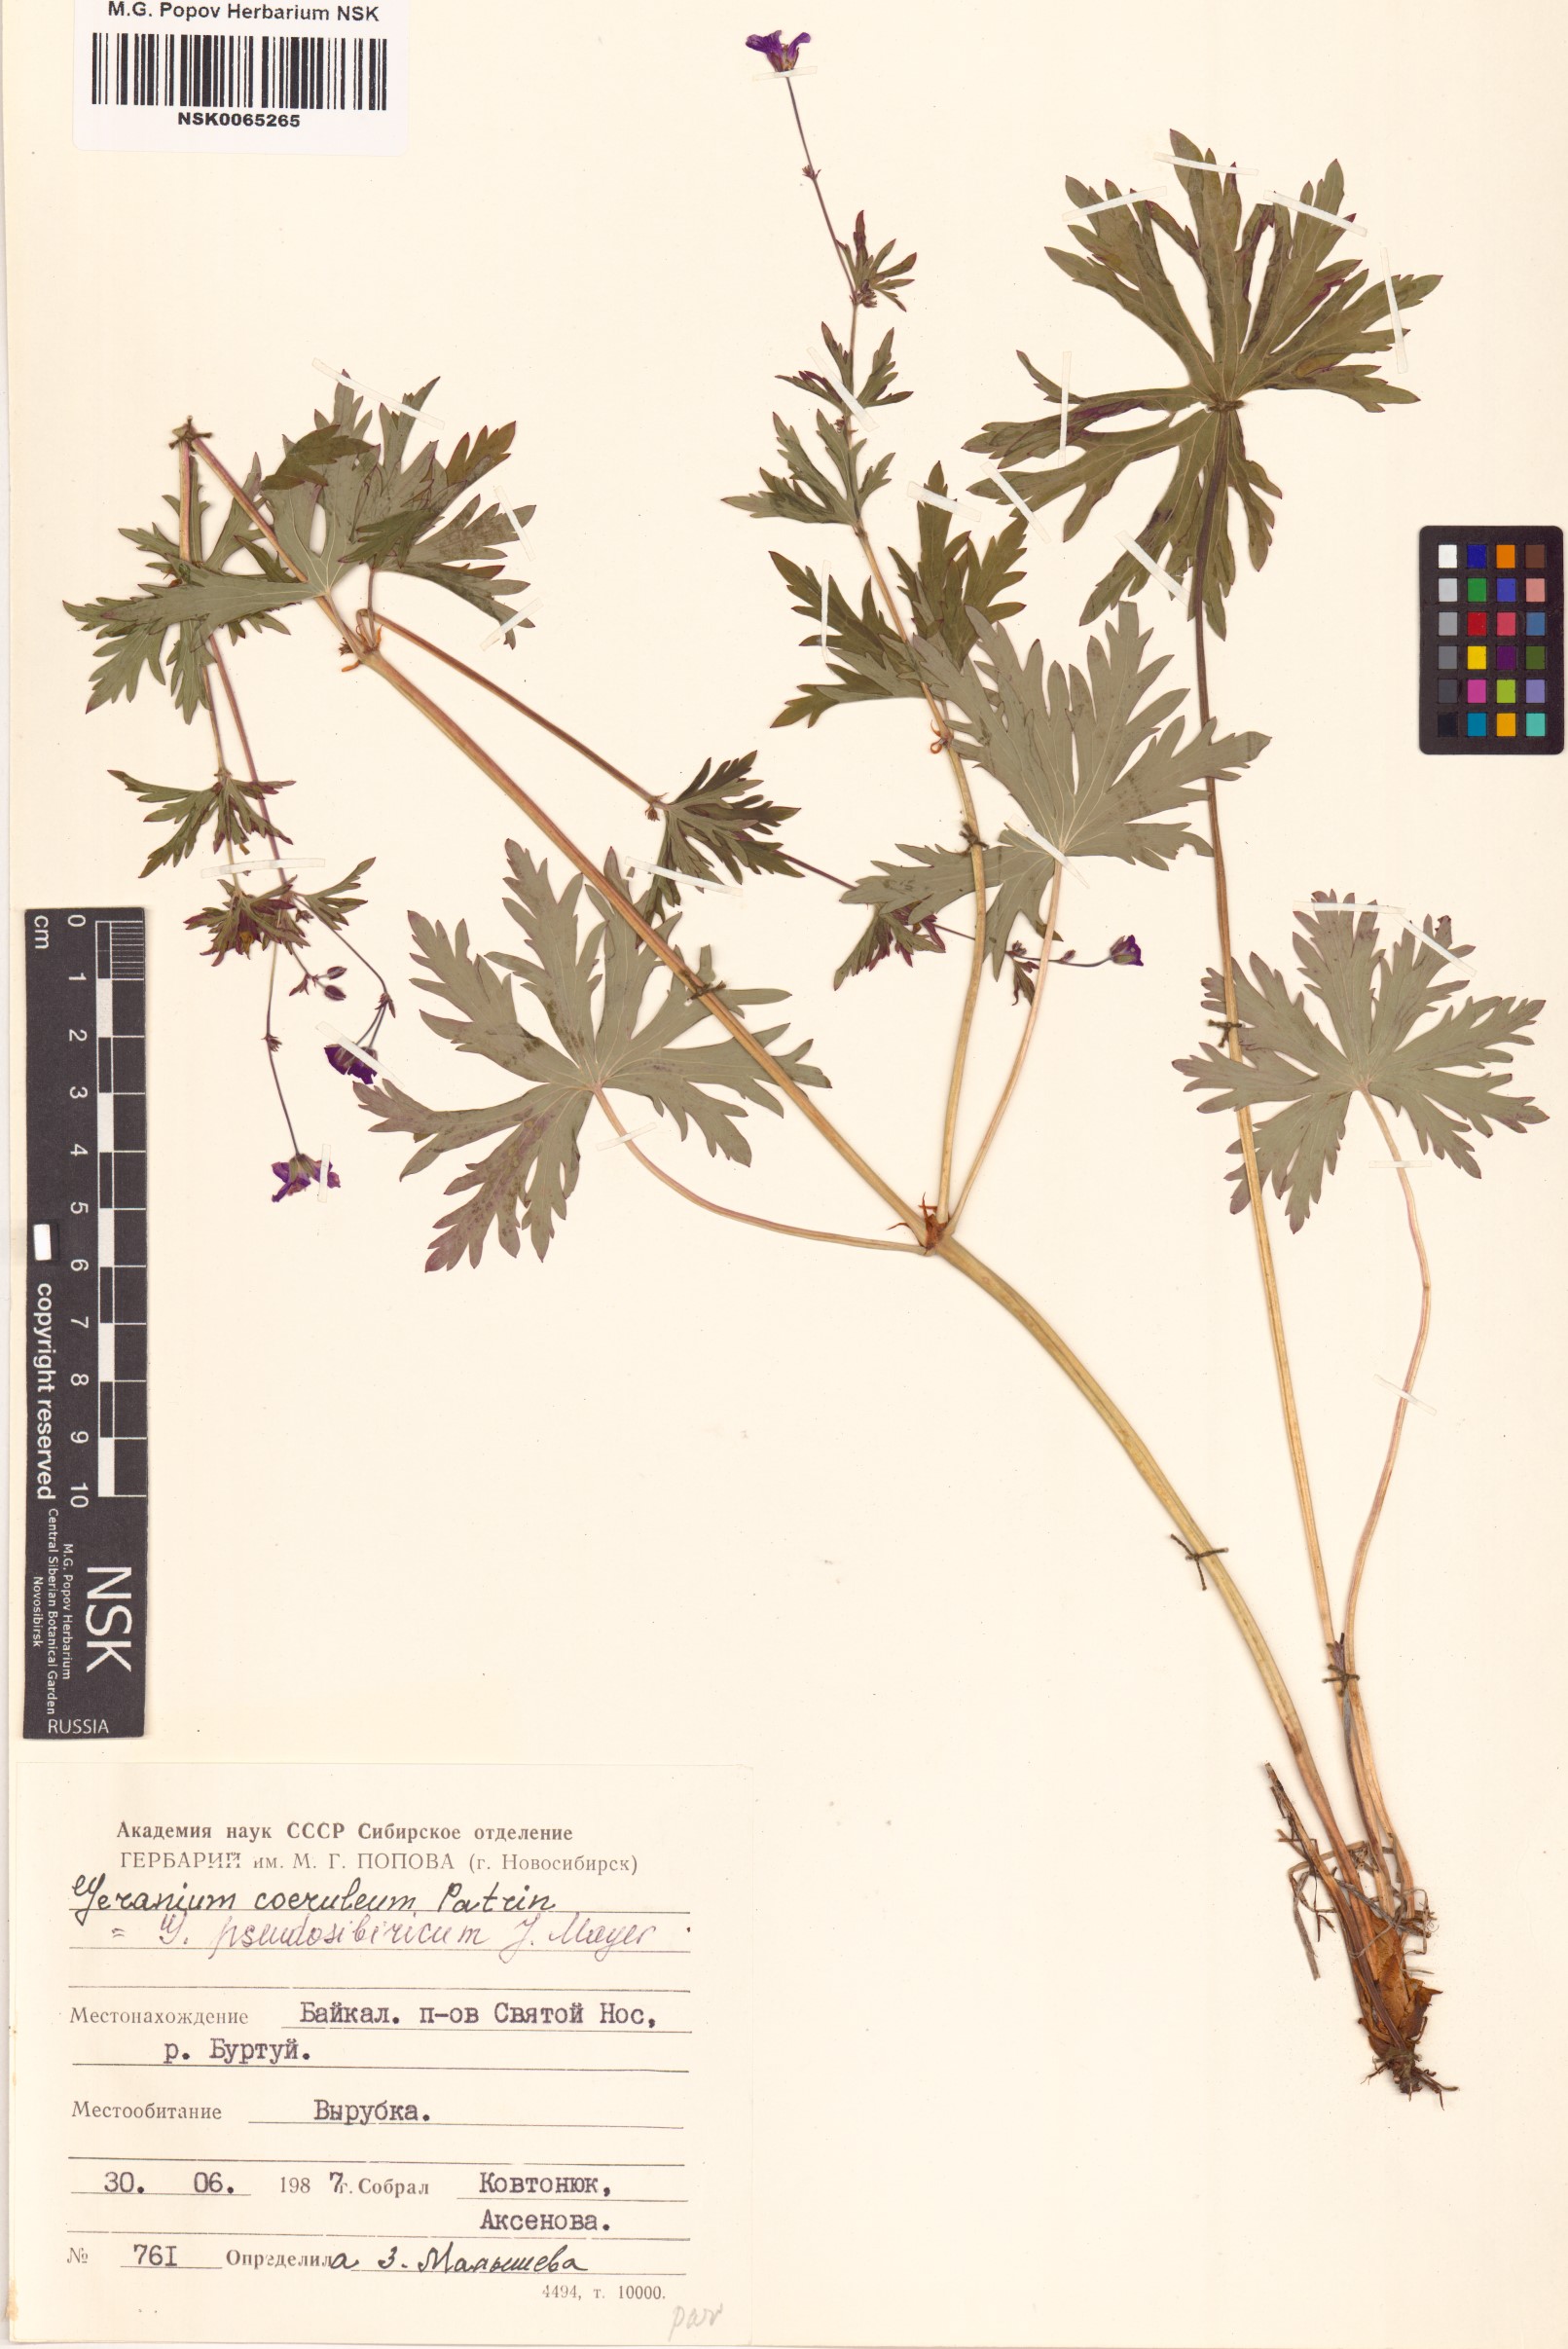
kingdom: Plantae
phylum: Tracheophyta
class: Magnoliopsida
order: Geraniales
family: Geraniaceae
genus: Geranium
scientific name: Geranium pseudosibiricum
